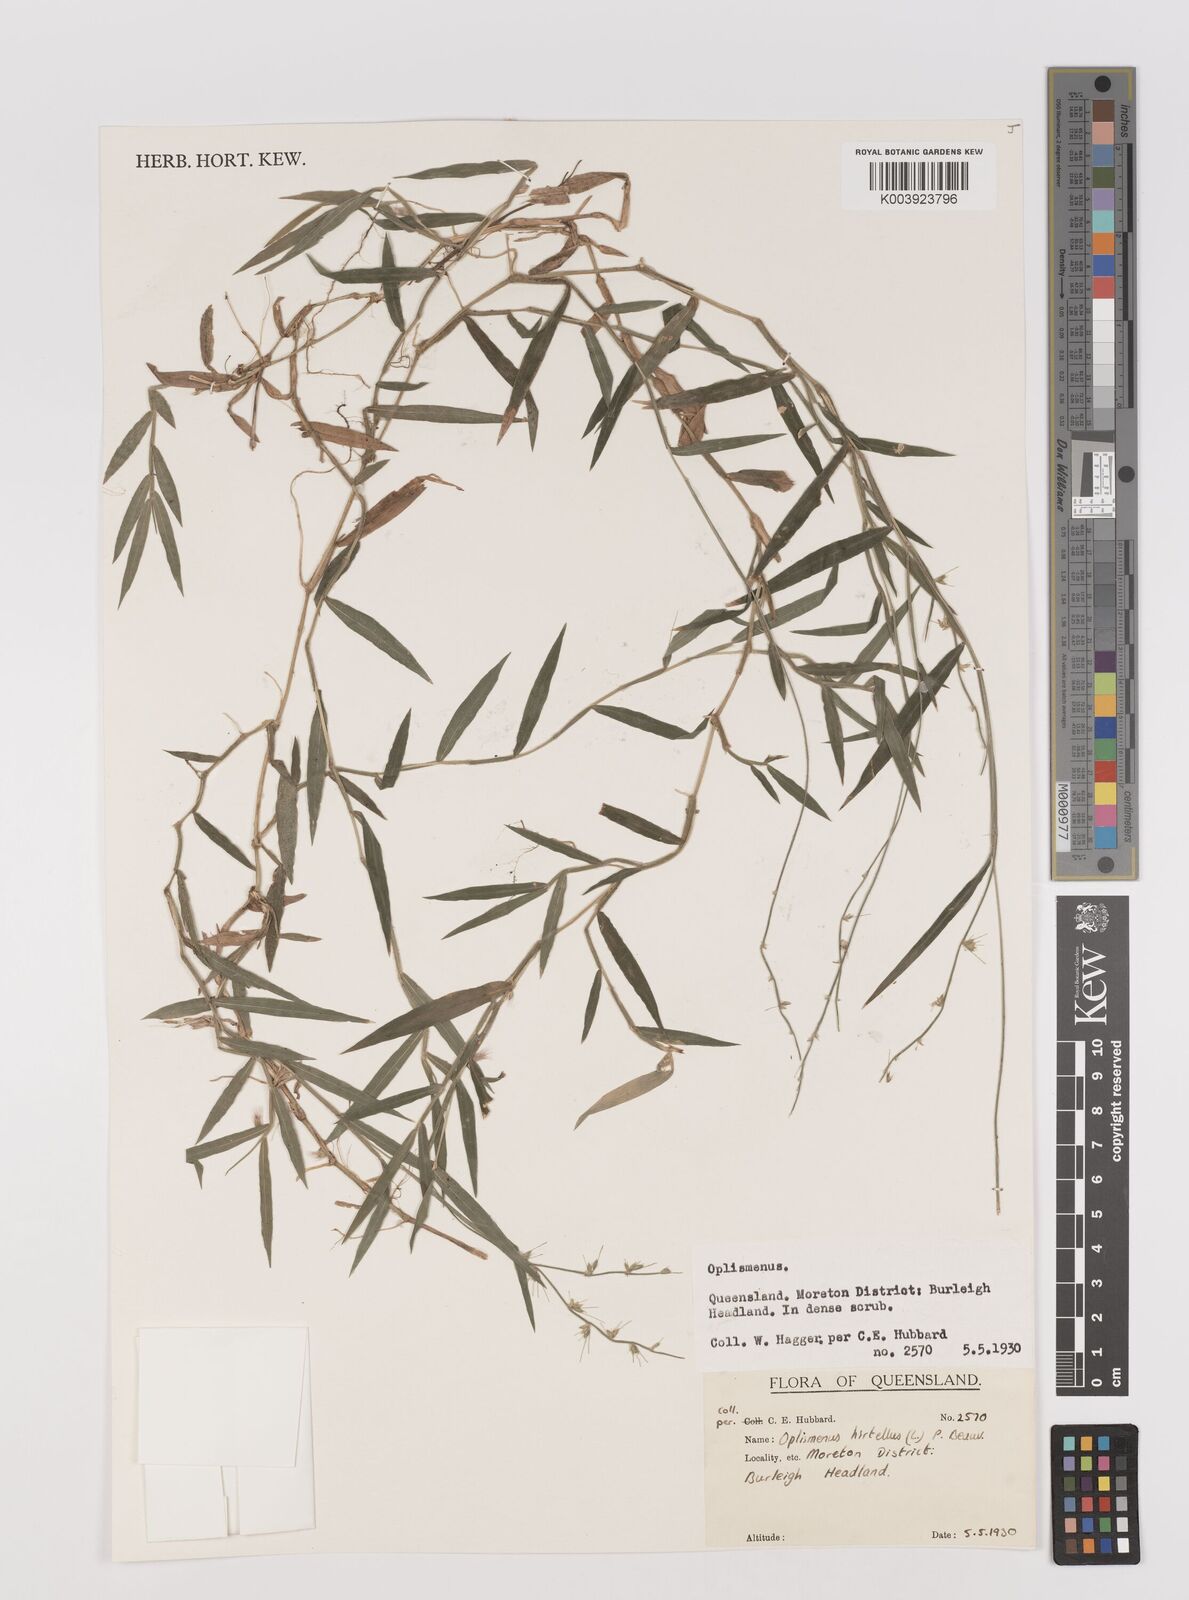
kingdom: Plantae
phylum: Tracheophyta
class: Liliopsida
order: Poales
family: Poaceae
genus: Oplismenus
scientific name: Oplismenus hirtellus
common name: Basketgrass
